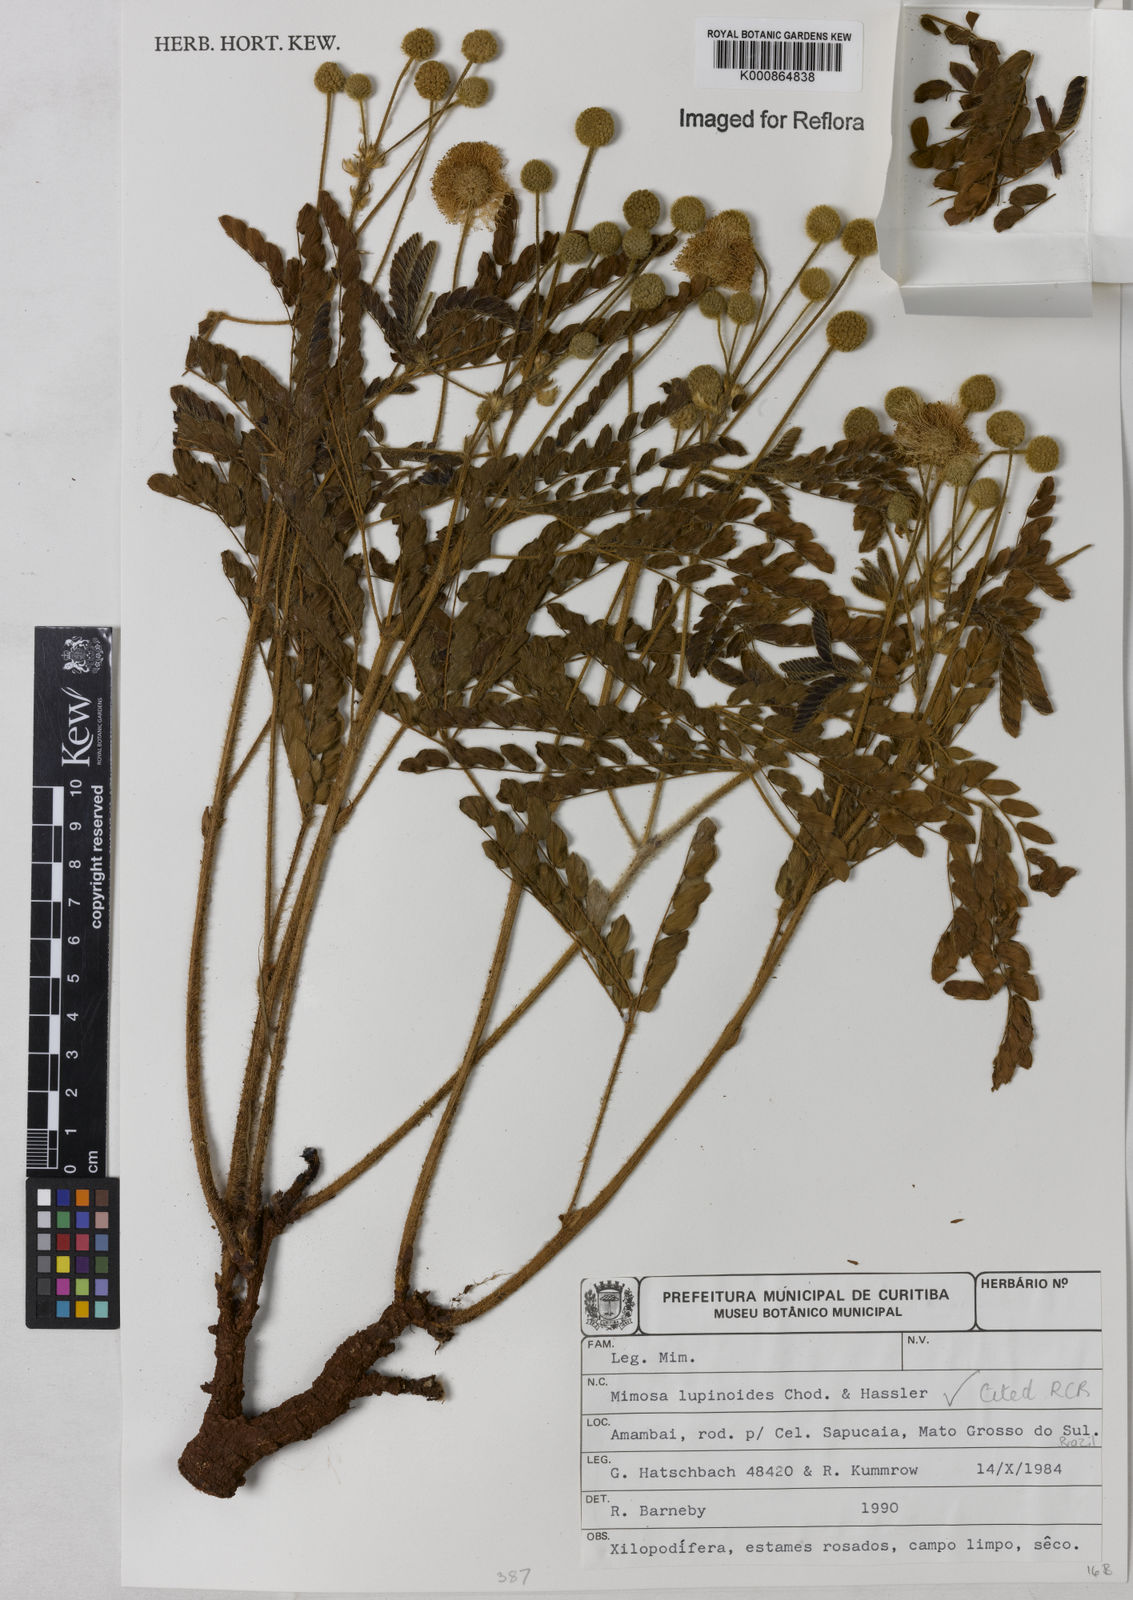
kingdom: Plantae
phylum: Tracheophyta
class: Magnoliopsida
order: Fabales
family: Fabaceae
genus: Mimosa
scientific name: Mimosa lupinoides
